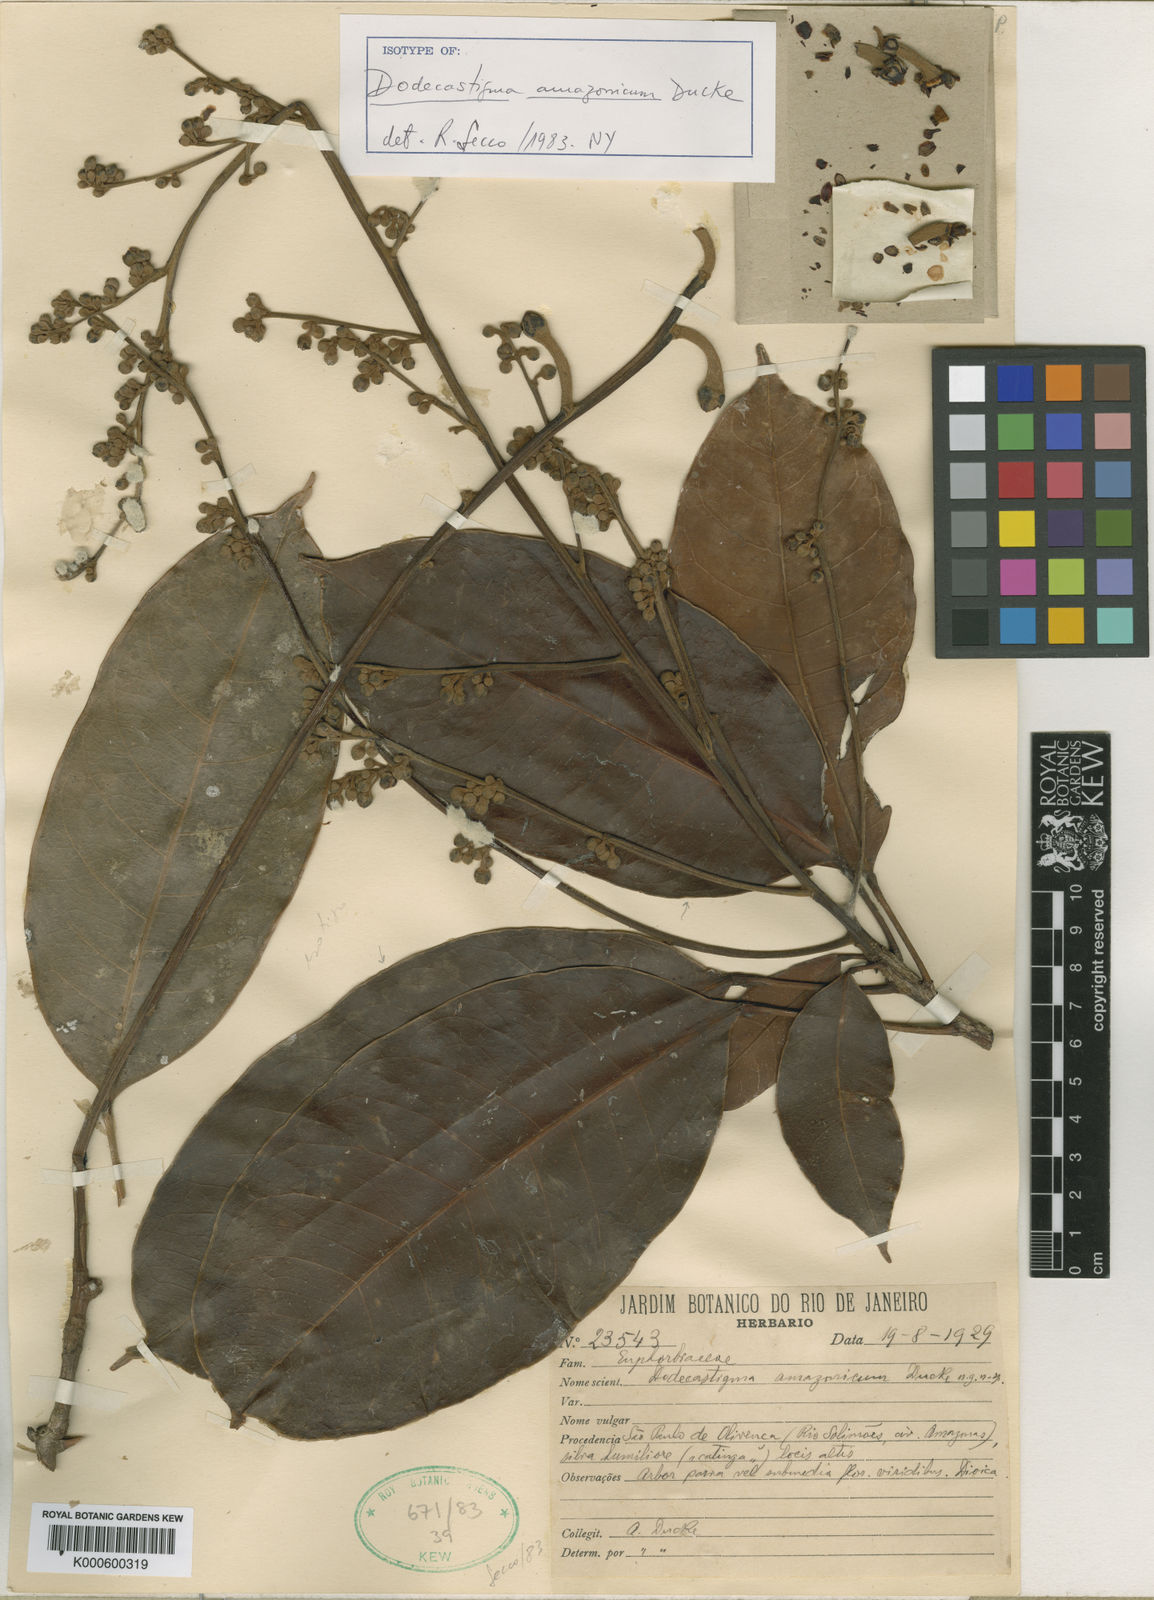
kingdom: Plantae
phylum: Tracheophyta
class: Magnoliopsida
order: Malpighiales
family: Euphorbiaceae
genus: Dodecastigma
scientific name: Dodecastigma amazonicum
